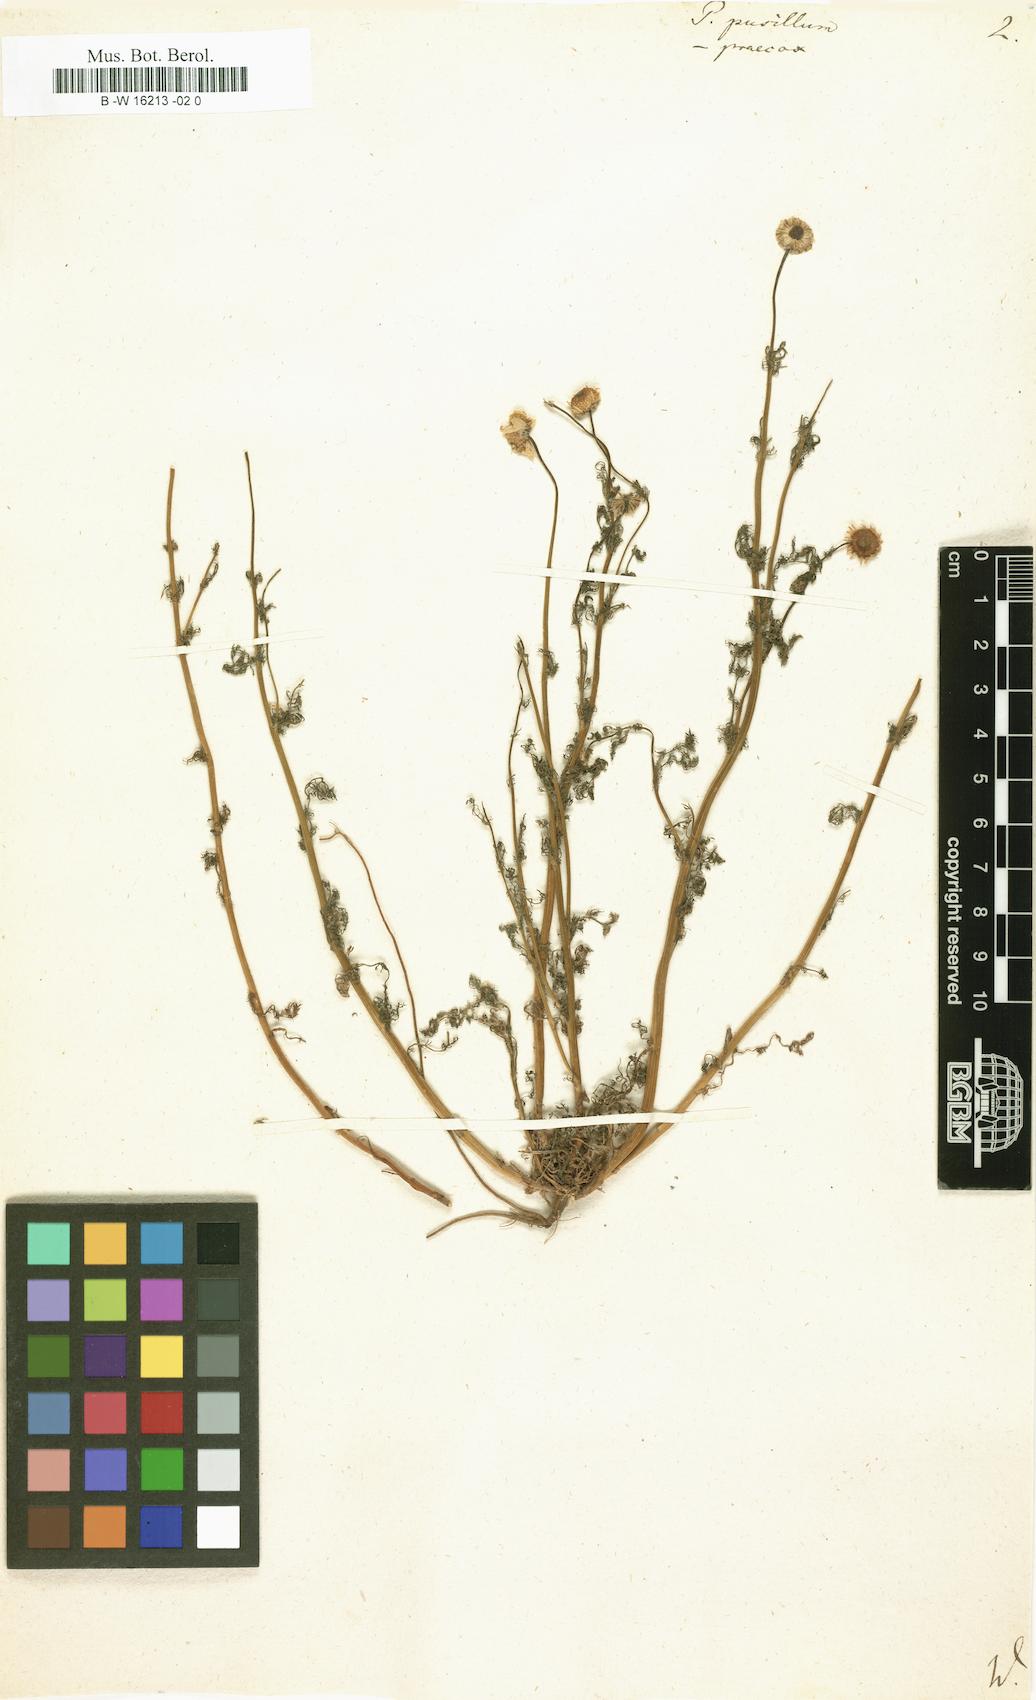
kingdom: Plantae
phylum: Tracheophyta
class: Magnoliopsida
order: Asterales
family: Asteraceae
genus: Tanacetum
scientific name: Tanacetum Pyrethrum pusillum
